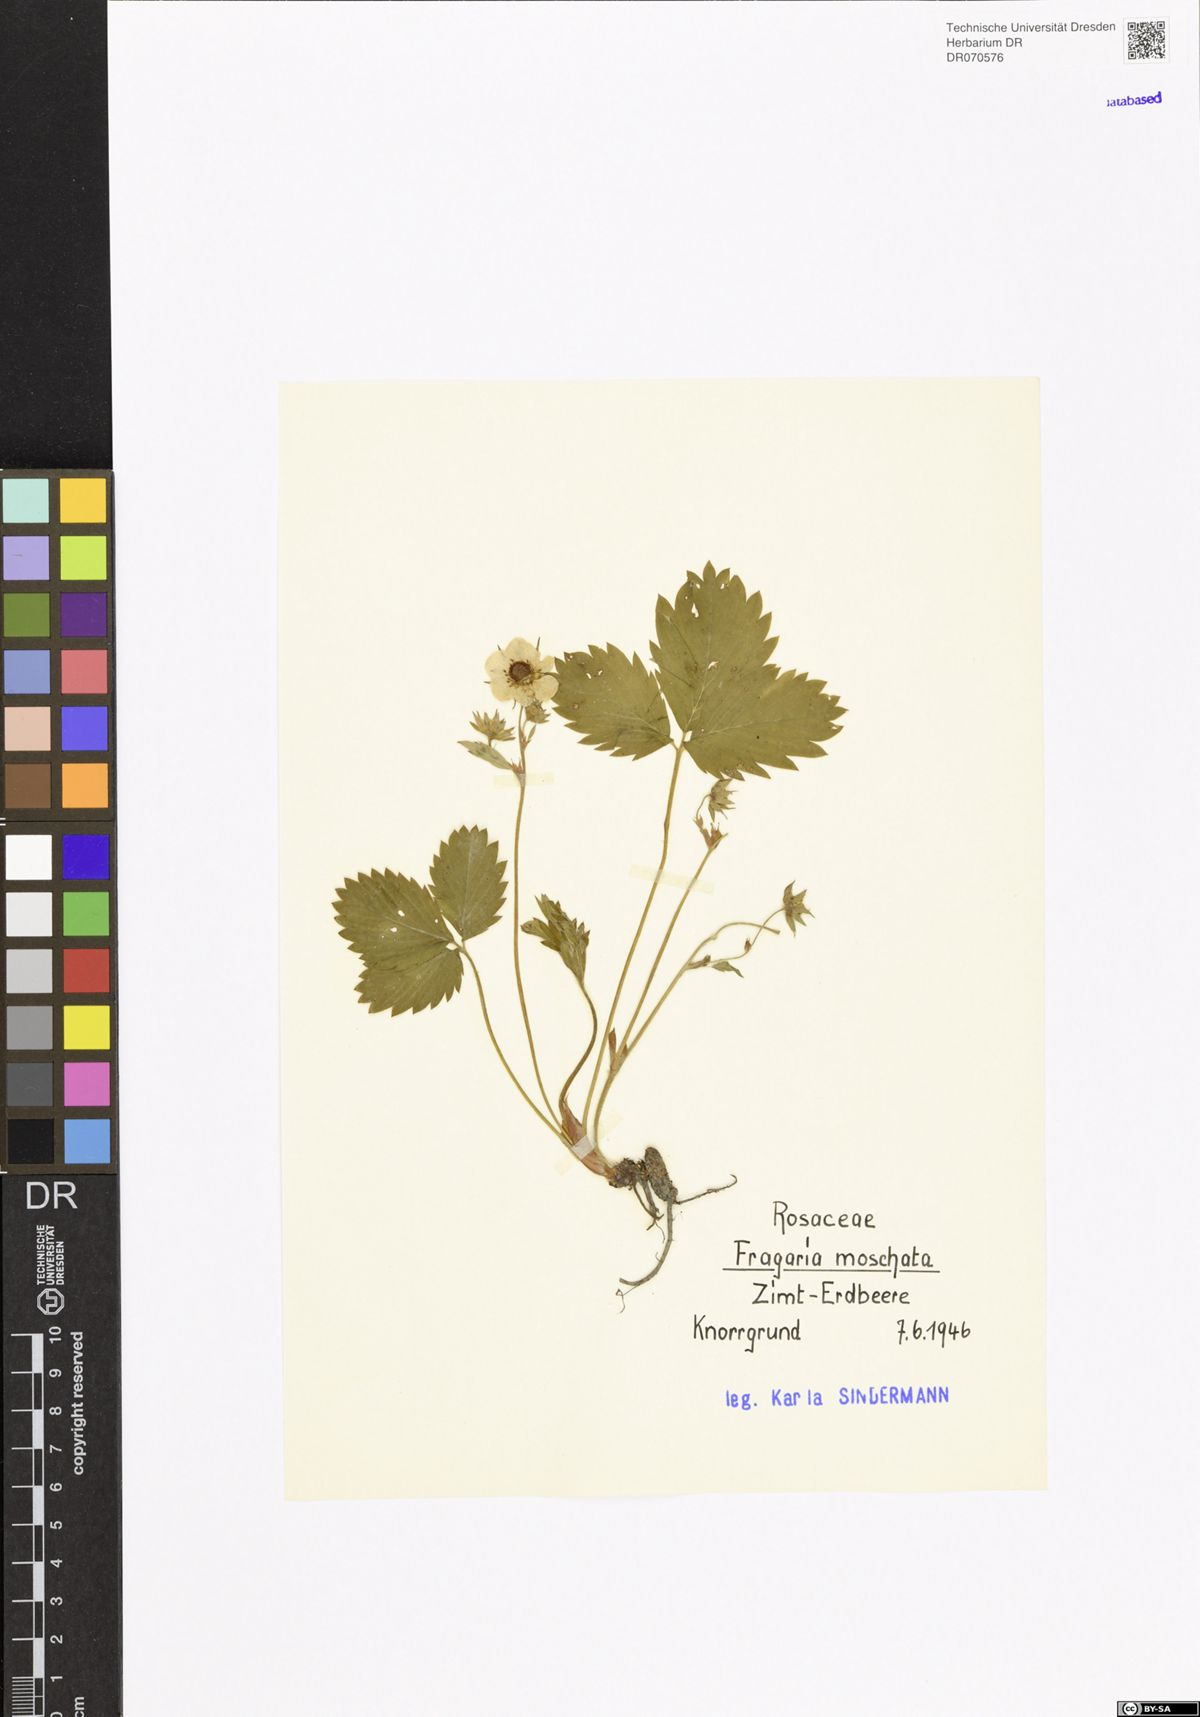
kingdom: Plantae
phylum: Tracheophyta
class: Magnoliopsida
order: Rosales
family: Rosaceae
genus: Fragaria
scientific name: Fragaria moschata
